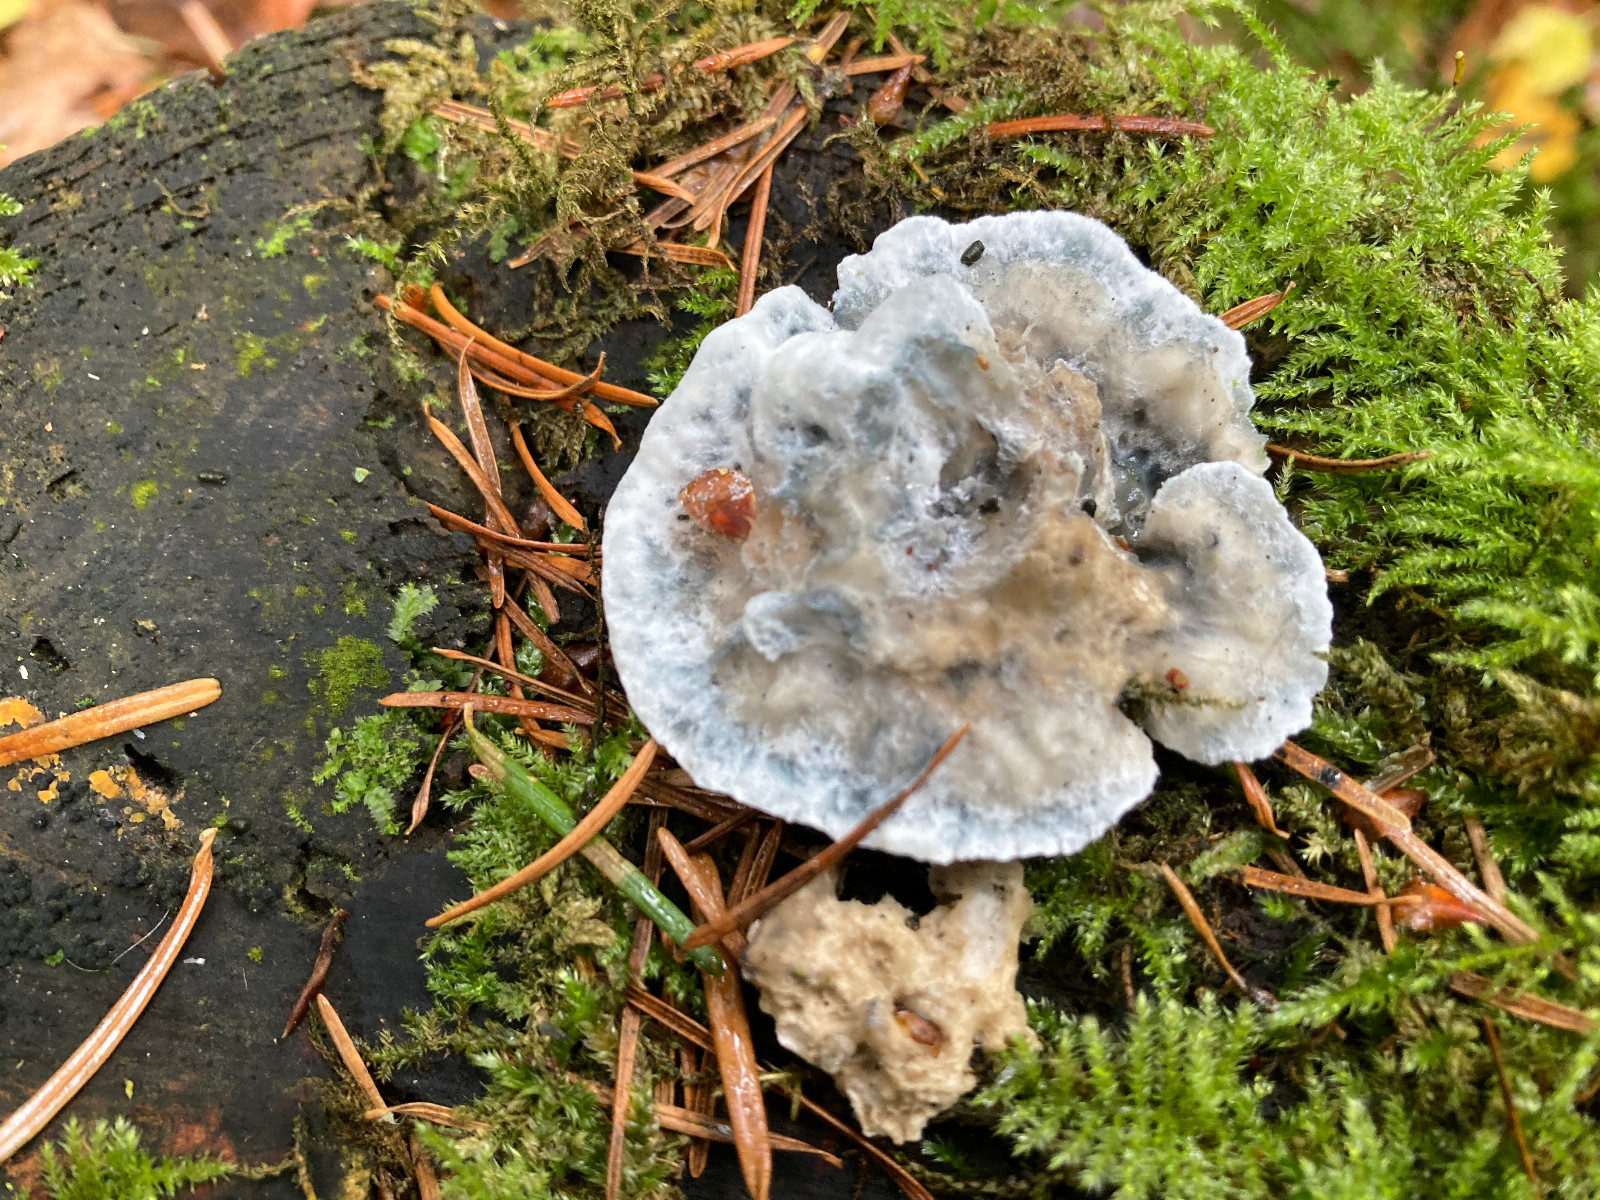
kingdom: Fungi
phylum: Basidiomycota
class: Agaricomycetes
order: Polyporales
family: Polyporaceae
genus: Cyanosporus
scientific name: Cyanosporus caesius
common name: blålig kødporesvamp
